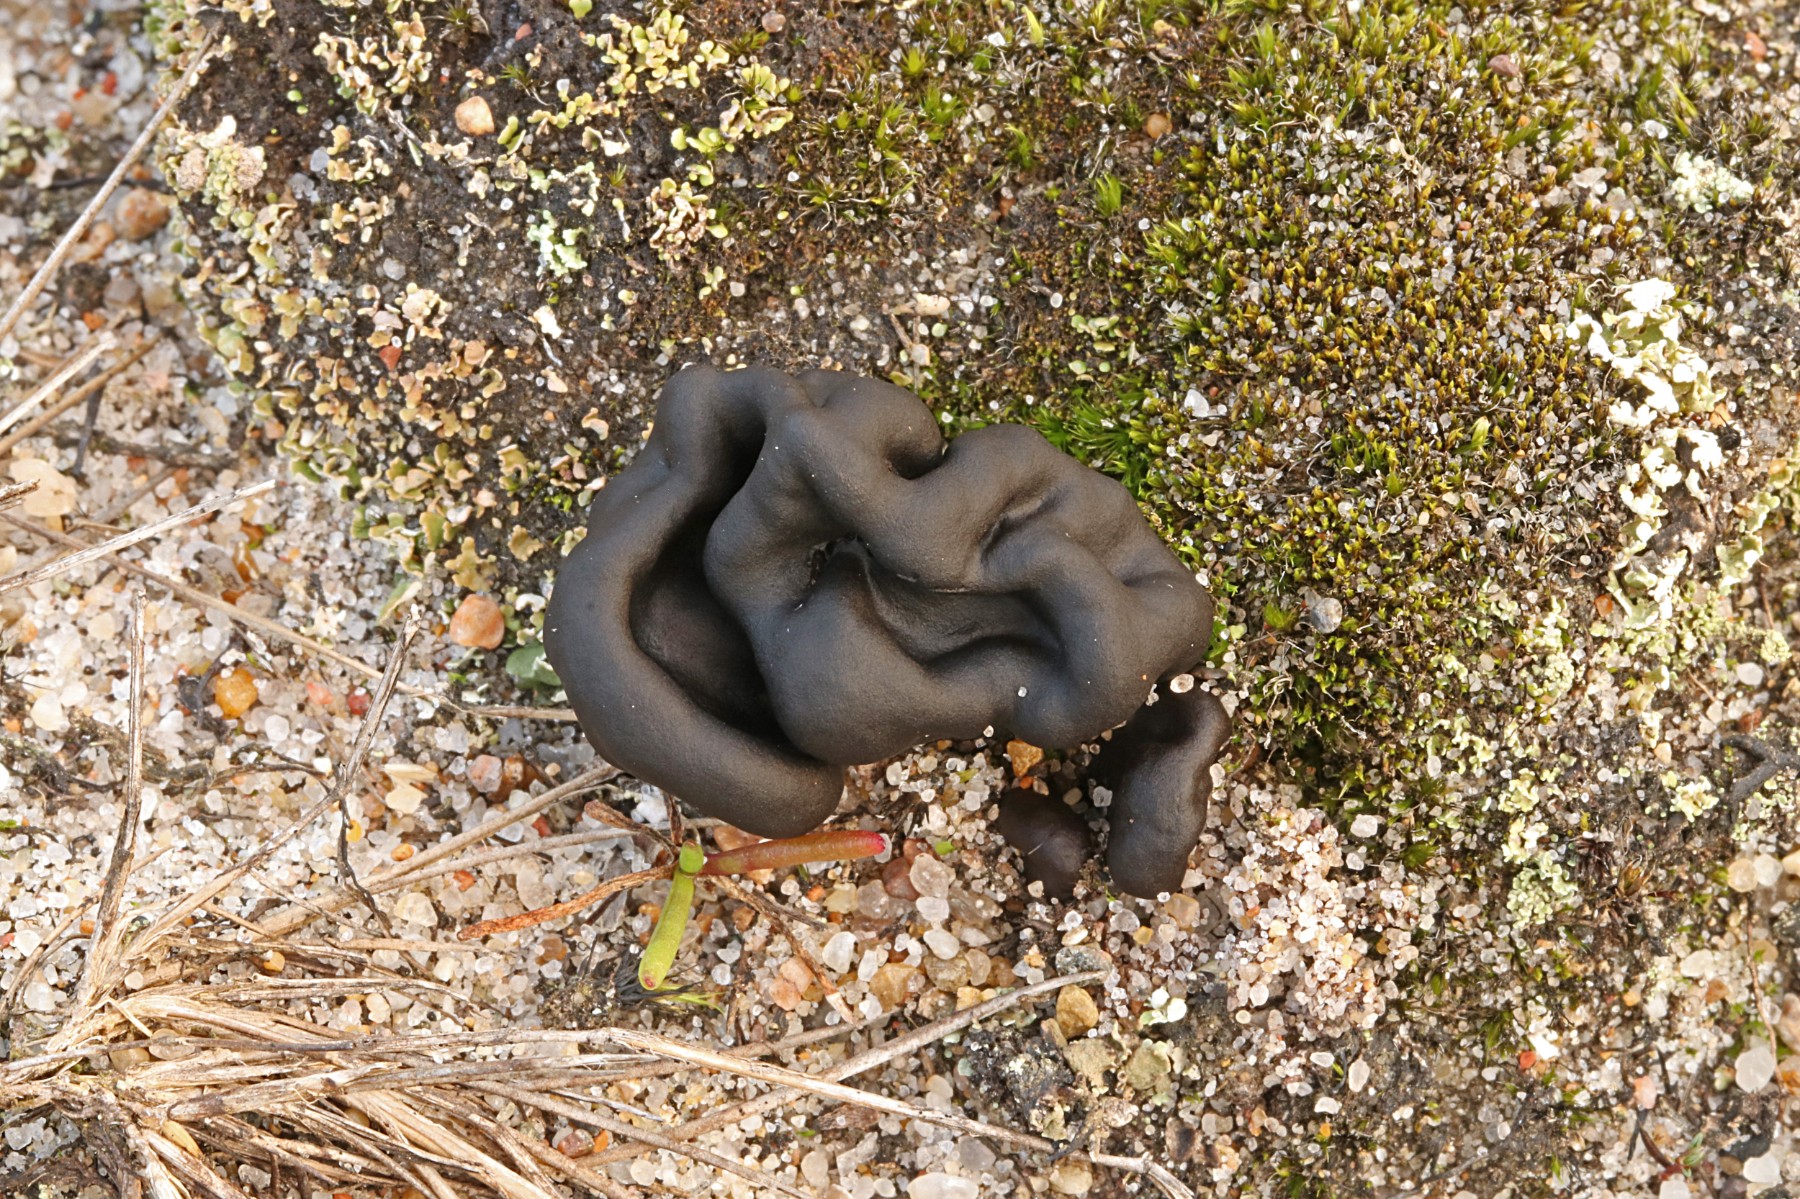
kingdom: Fungi
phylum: Ascomycota
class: Geoglossomycetes
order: Geoglossales
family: Geoglossaceae
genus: Sabuloglossum
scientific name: Sabuloglossum arenarium
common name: klit-jordtunge
